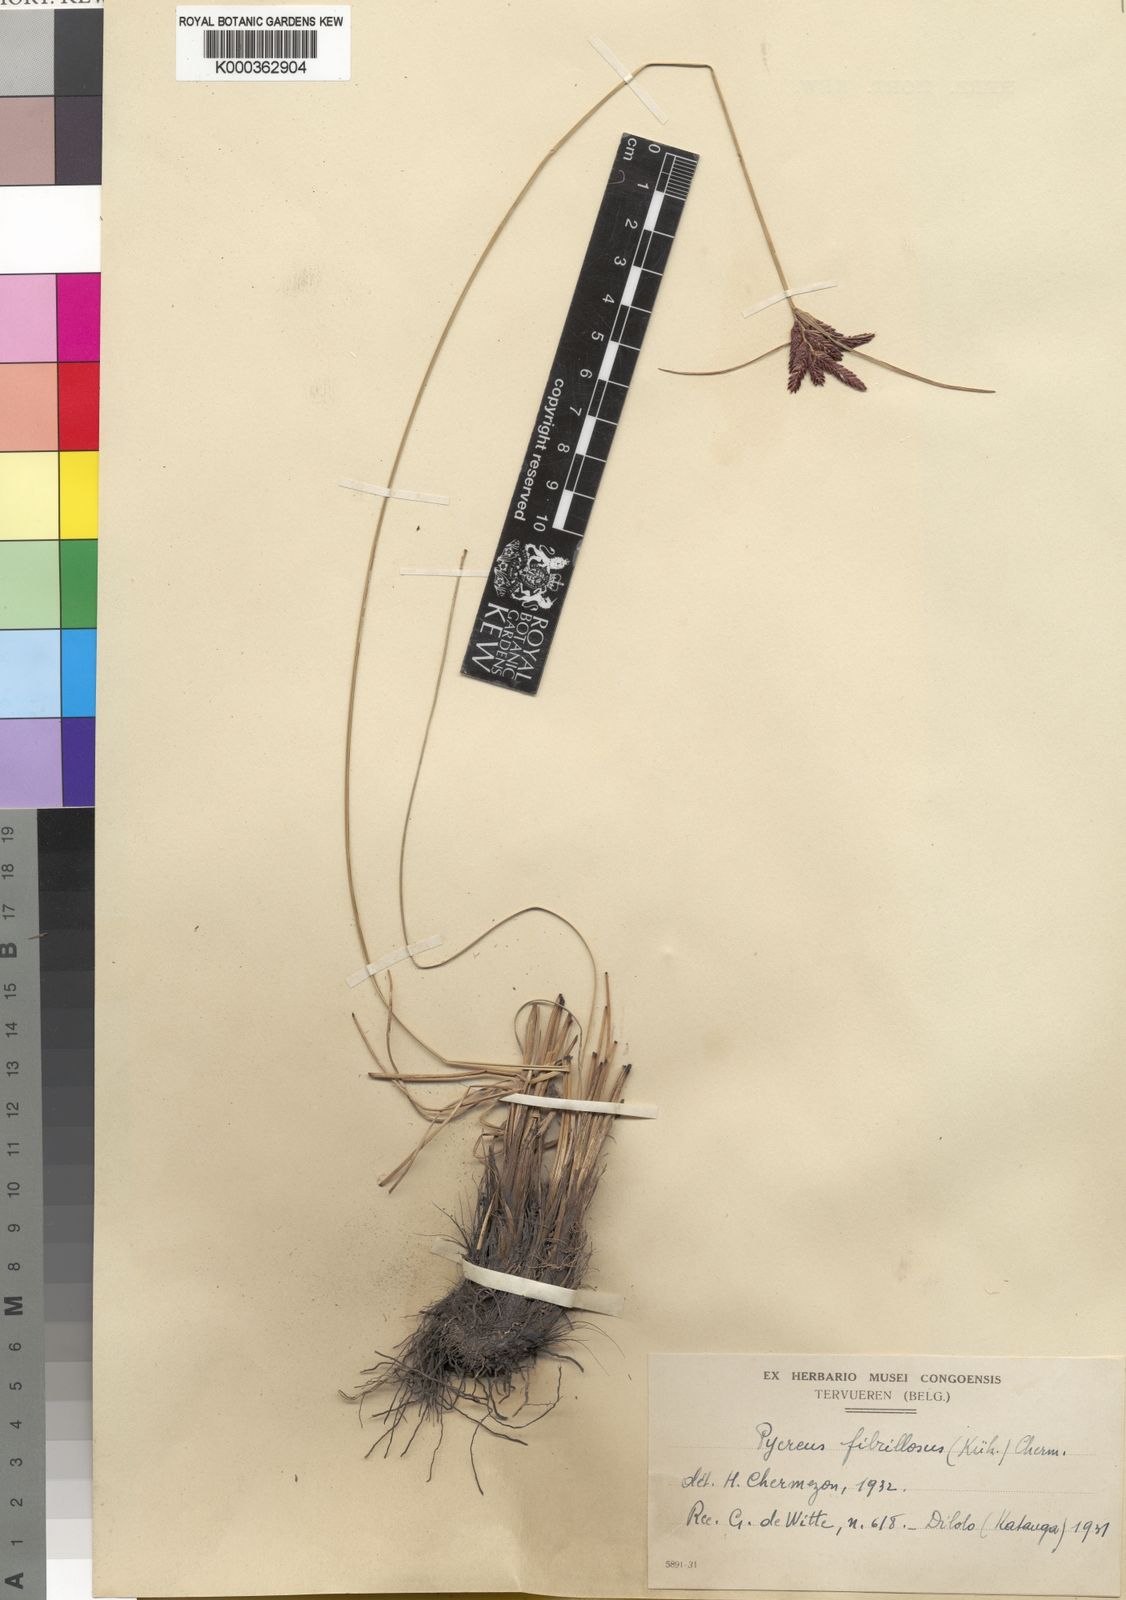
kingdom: Plantae
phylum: Tracheophyta
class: Liliopsida
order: Poales
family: Cyperaceae
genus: Cyperus
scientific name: Cyperus
